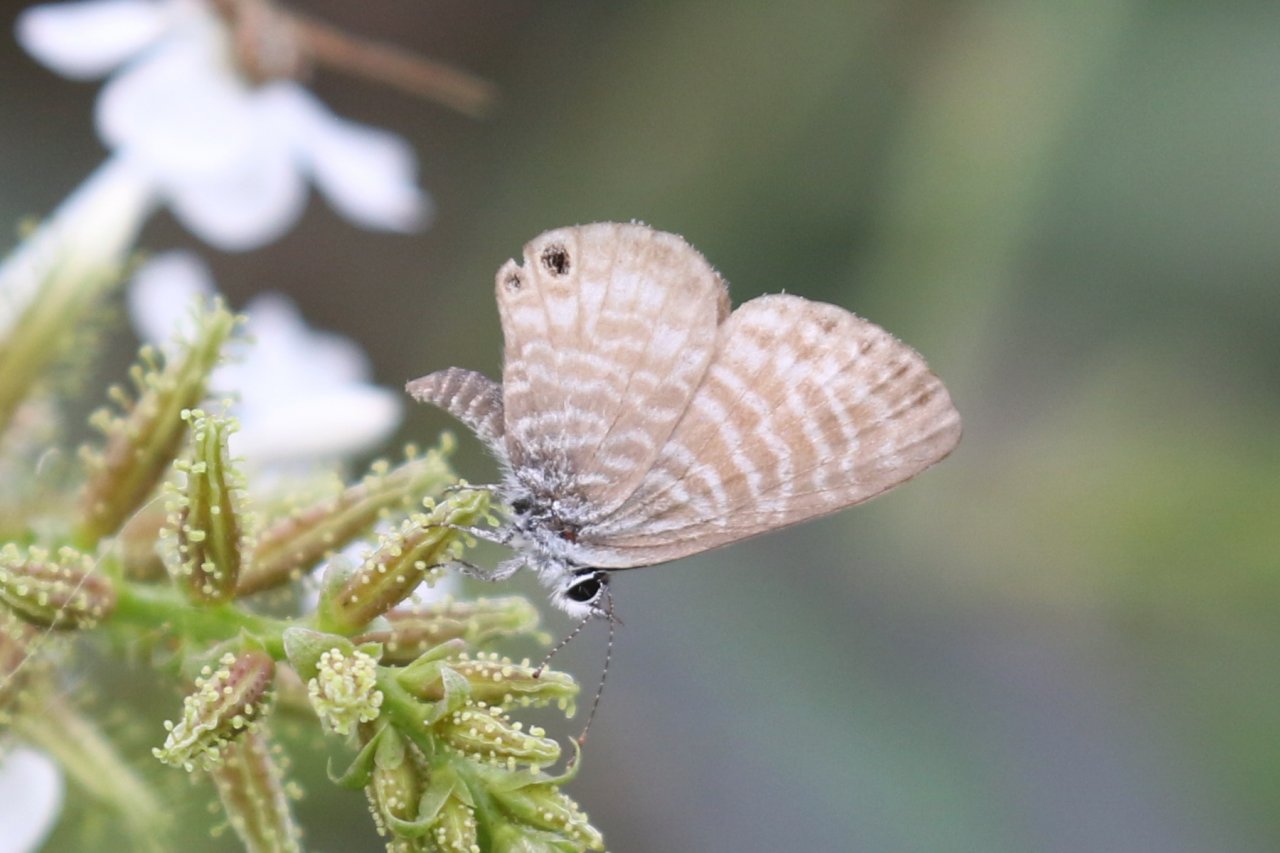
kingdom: Animalia
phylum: Arthropoda
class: Insecta
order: Lepidoptera
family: Lycaenidae
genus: Leptotes
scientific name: Leptotes marina
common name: Marine Blue
